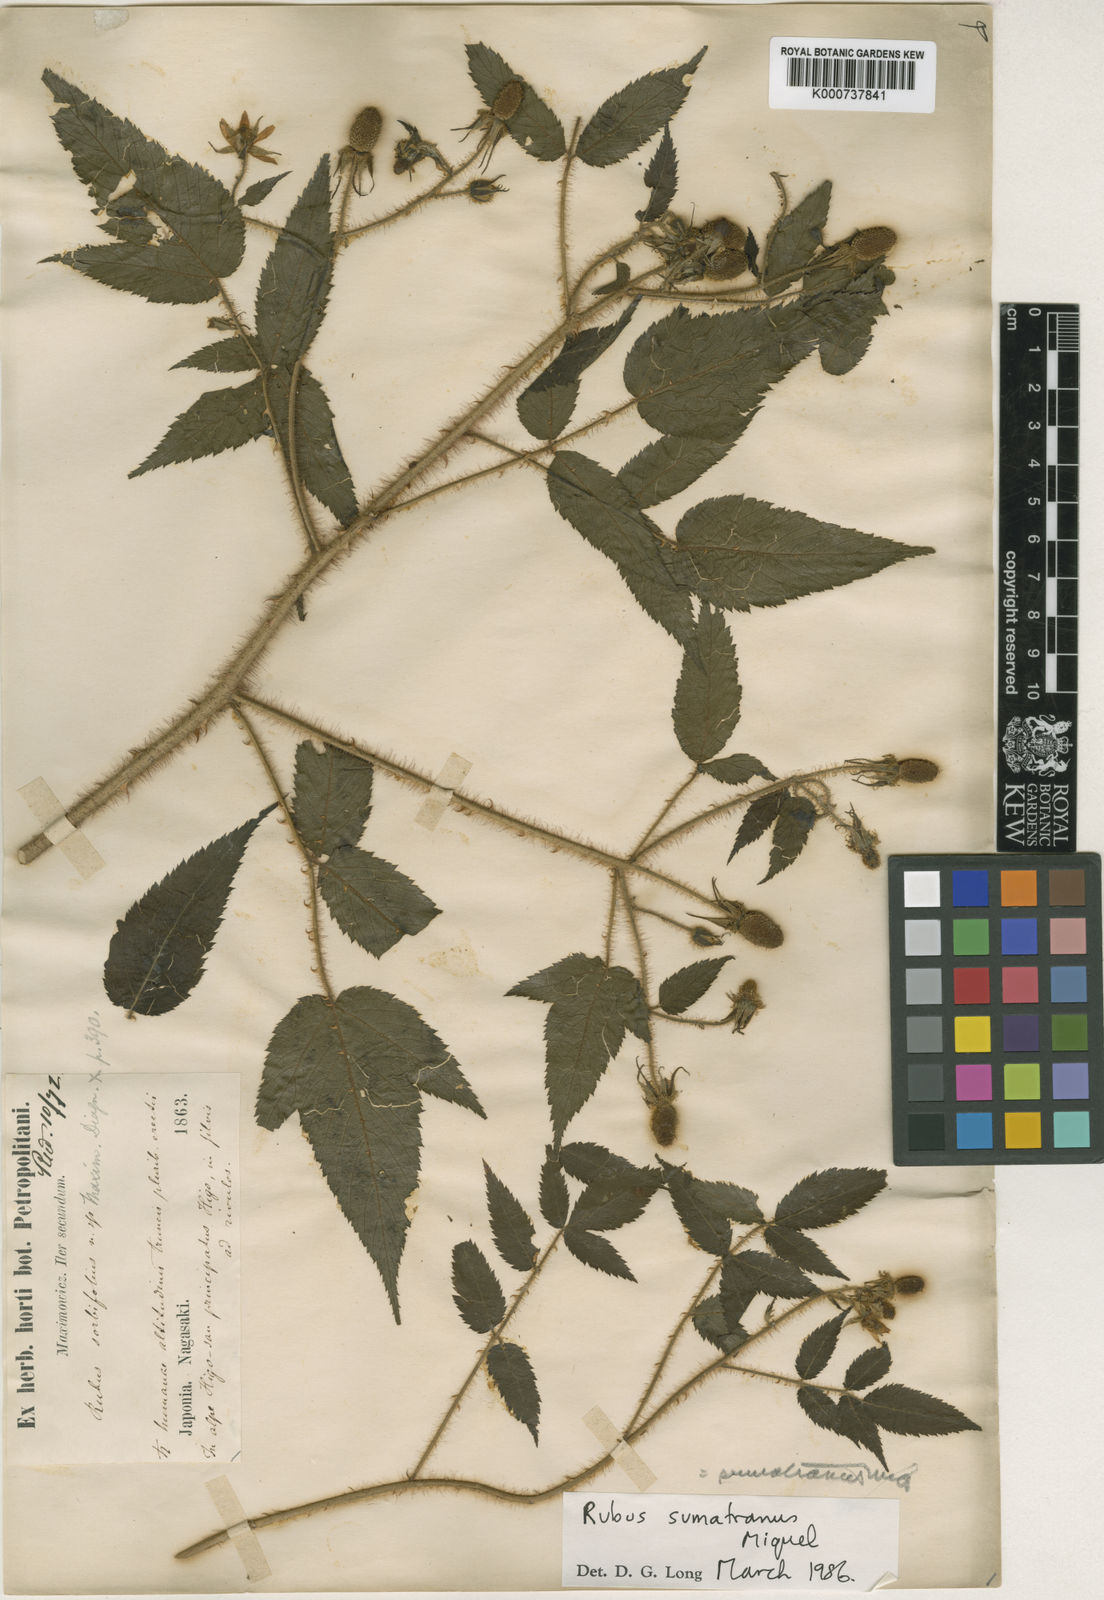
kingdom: Plantae
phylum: Tracheophyta
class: Magnoliopsida
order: Rosales
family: Rosaceae
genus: Rubus
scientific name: Rubus sumatranus
